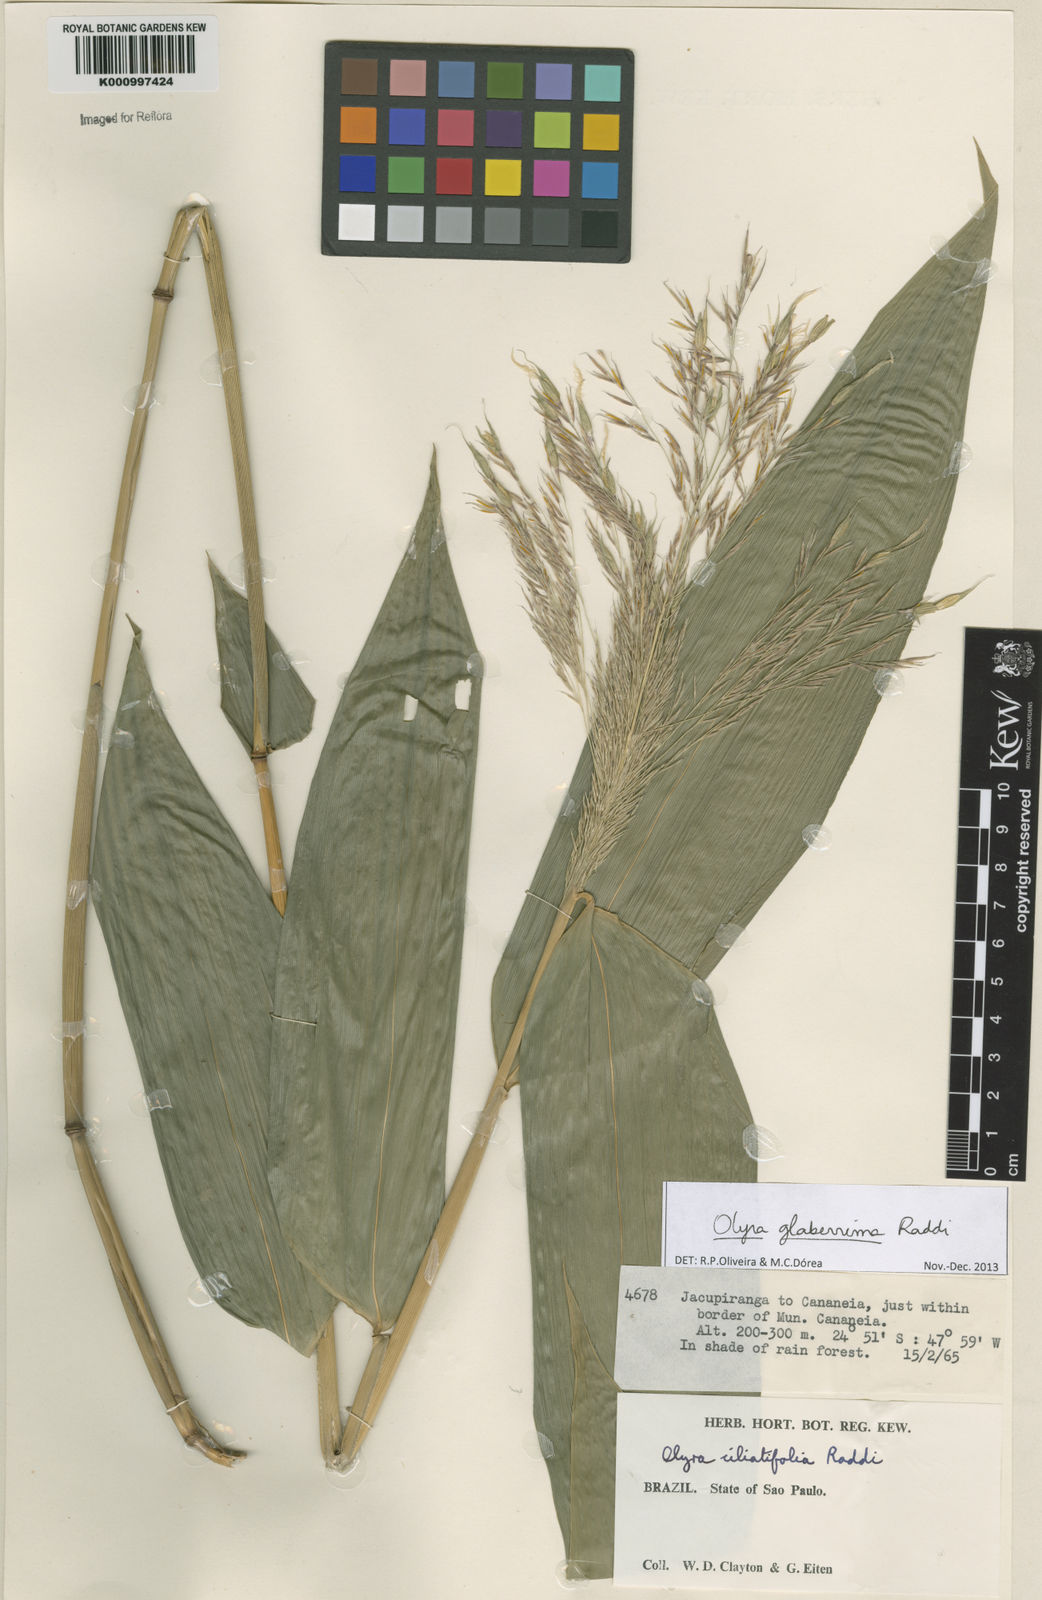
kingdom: Plantae
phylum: Tracheophyta
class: Liliopsida
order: Poales
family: Poaceae
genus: Olyra
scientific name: Olyra glaberrima
